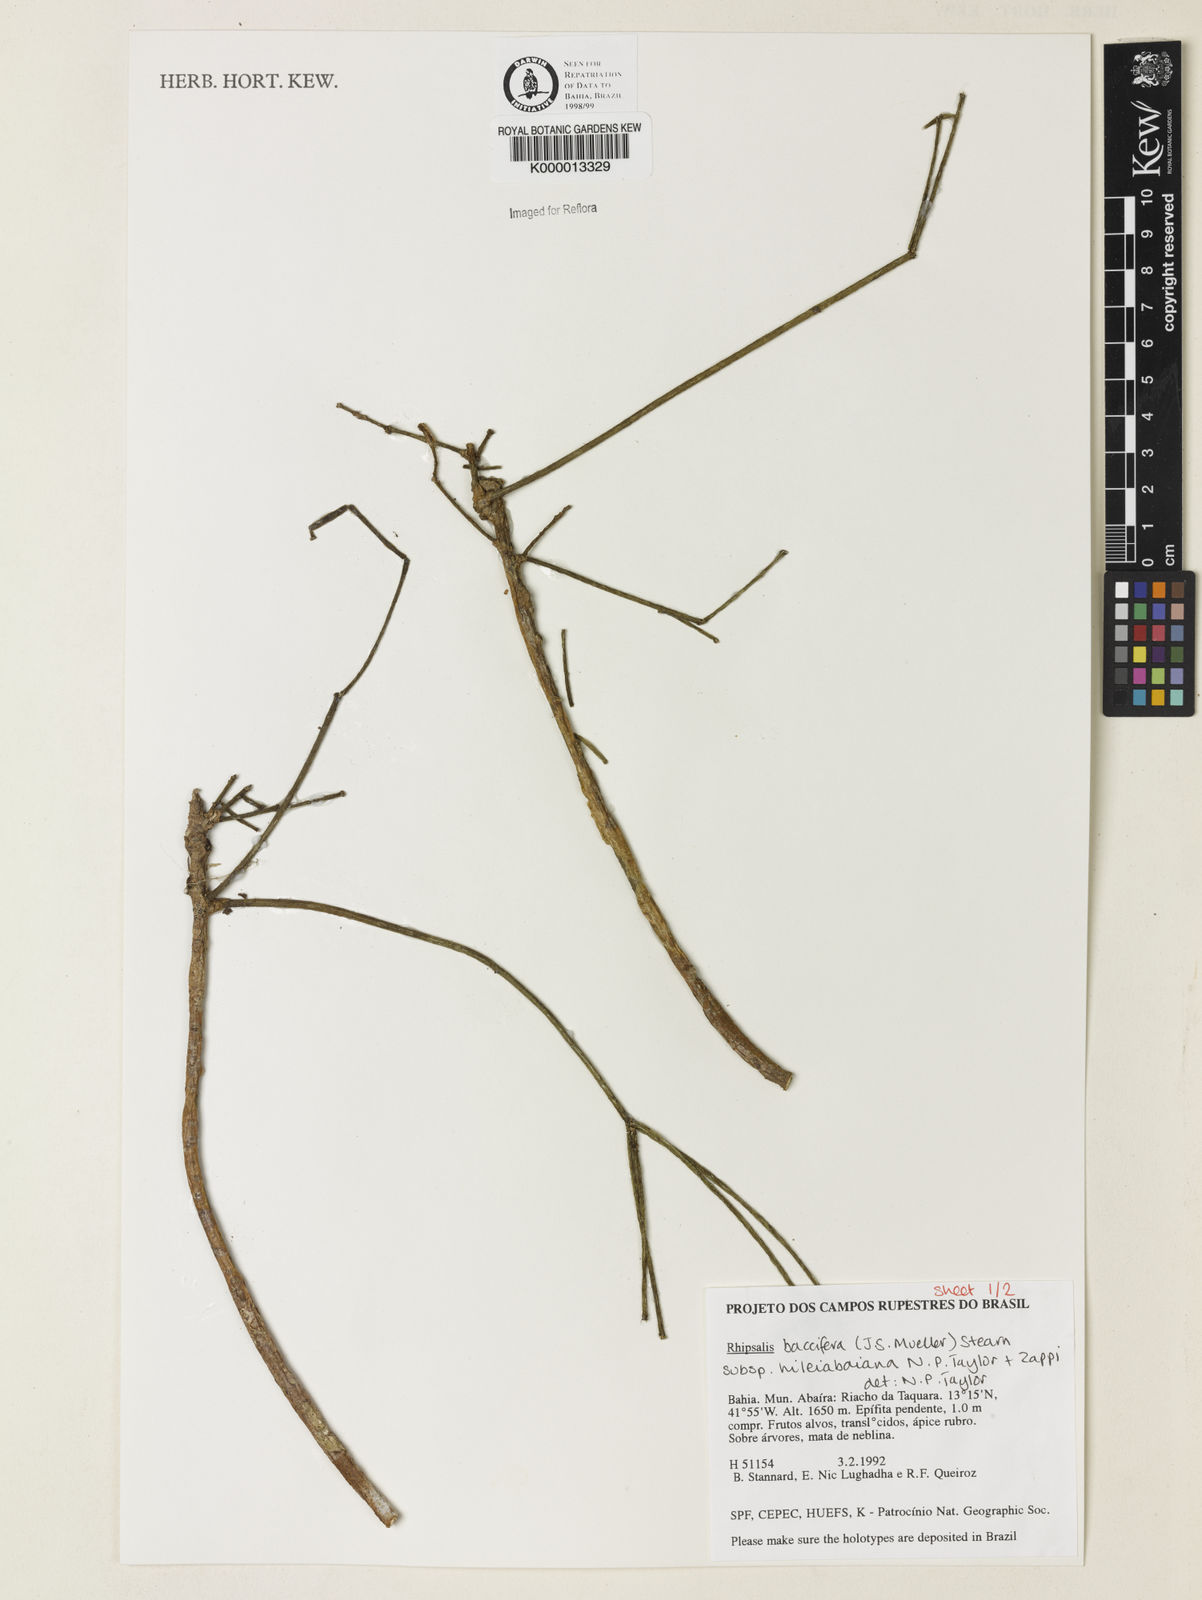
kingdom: Plantae
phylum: Tracheophyta
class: Magnoliopsida
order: Caryophyllales
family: Cactaceae
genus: Rhipsalis
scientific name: Rhipsalis hileiabaiana
